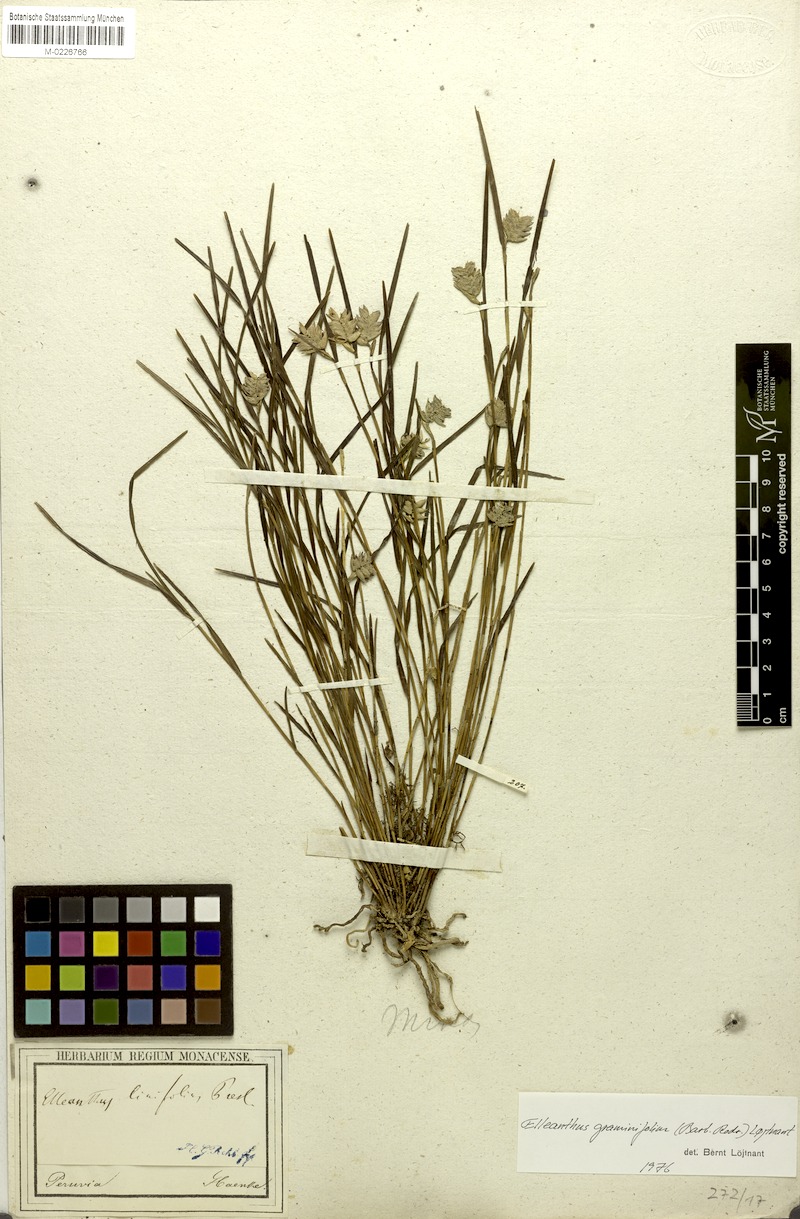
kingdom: Plantae
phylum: Tracheophyta
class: Liliopsida
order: Asparagales
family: Orchidaceae
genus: Elleanthus
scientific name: Elleanthus linifolius
